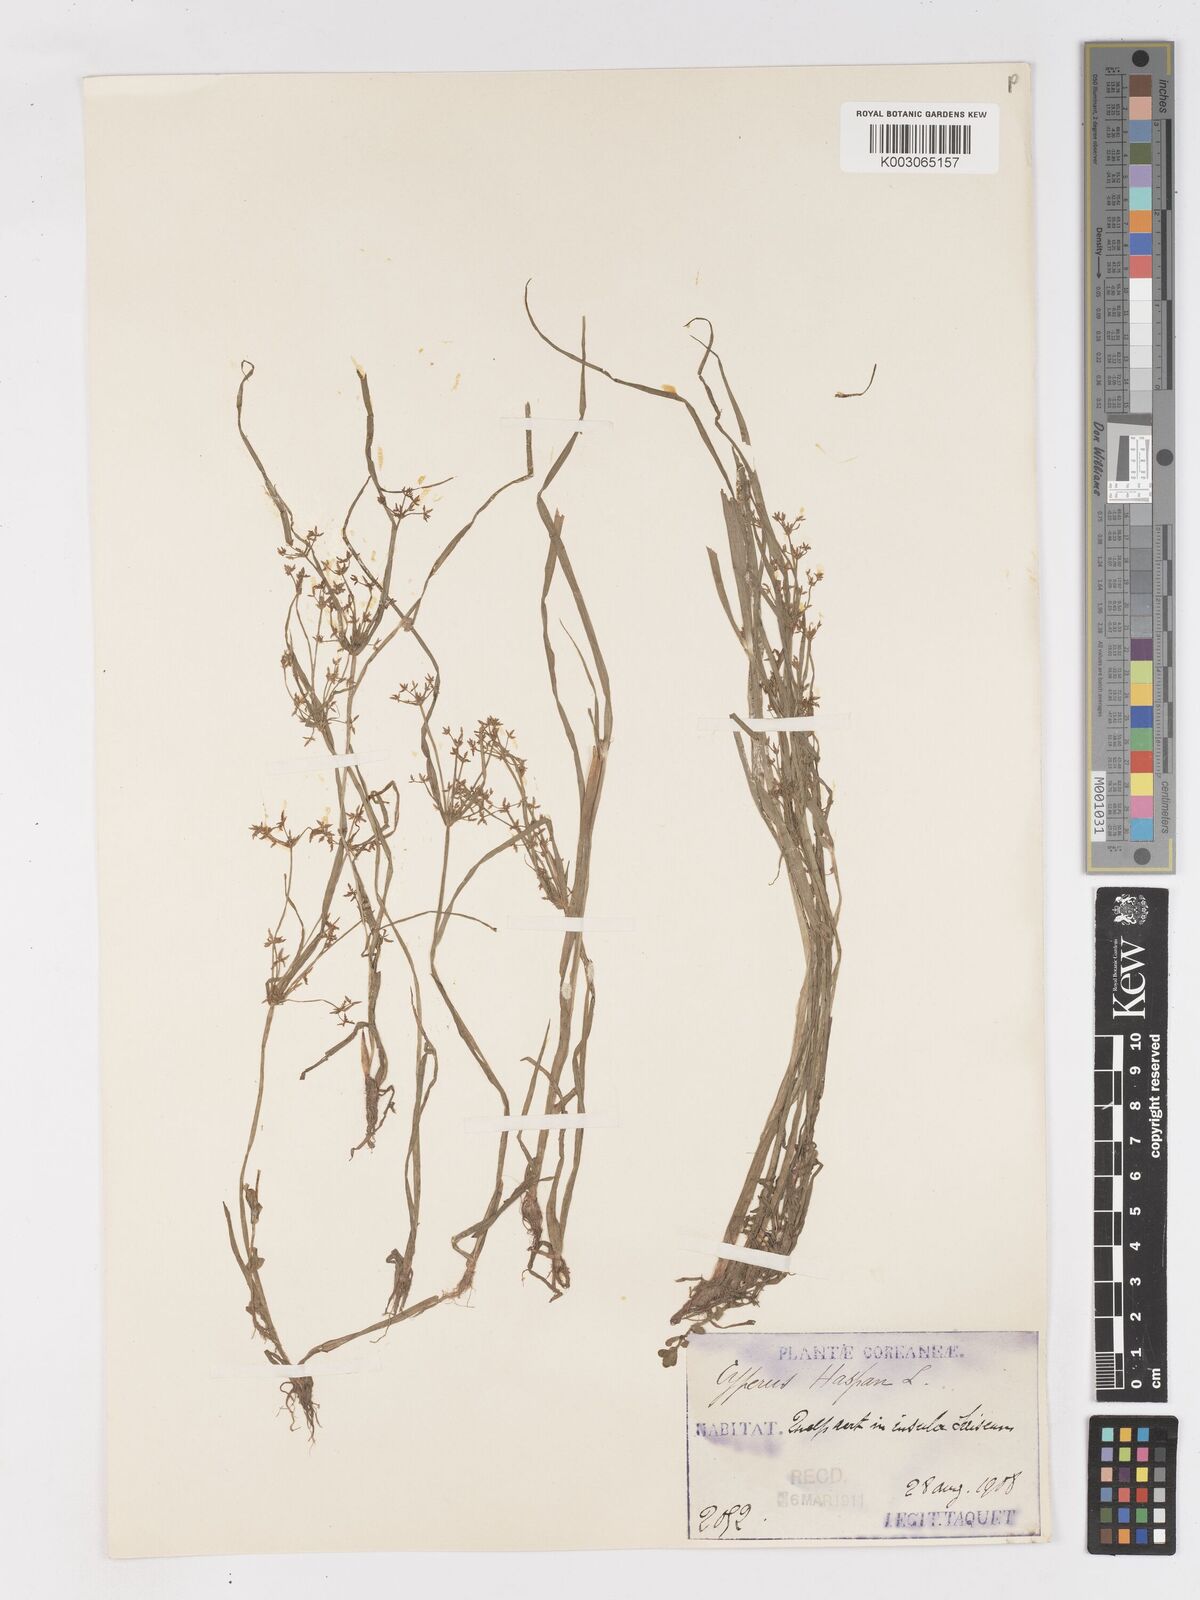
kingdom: Plantae
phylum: Tracheophyta
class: Liliopsida
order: Poales
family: Cyperaceae
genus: Cyperus
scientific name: Cyperus haspan
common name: Haspan flatsedge
